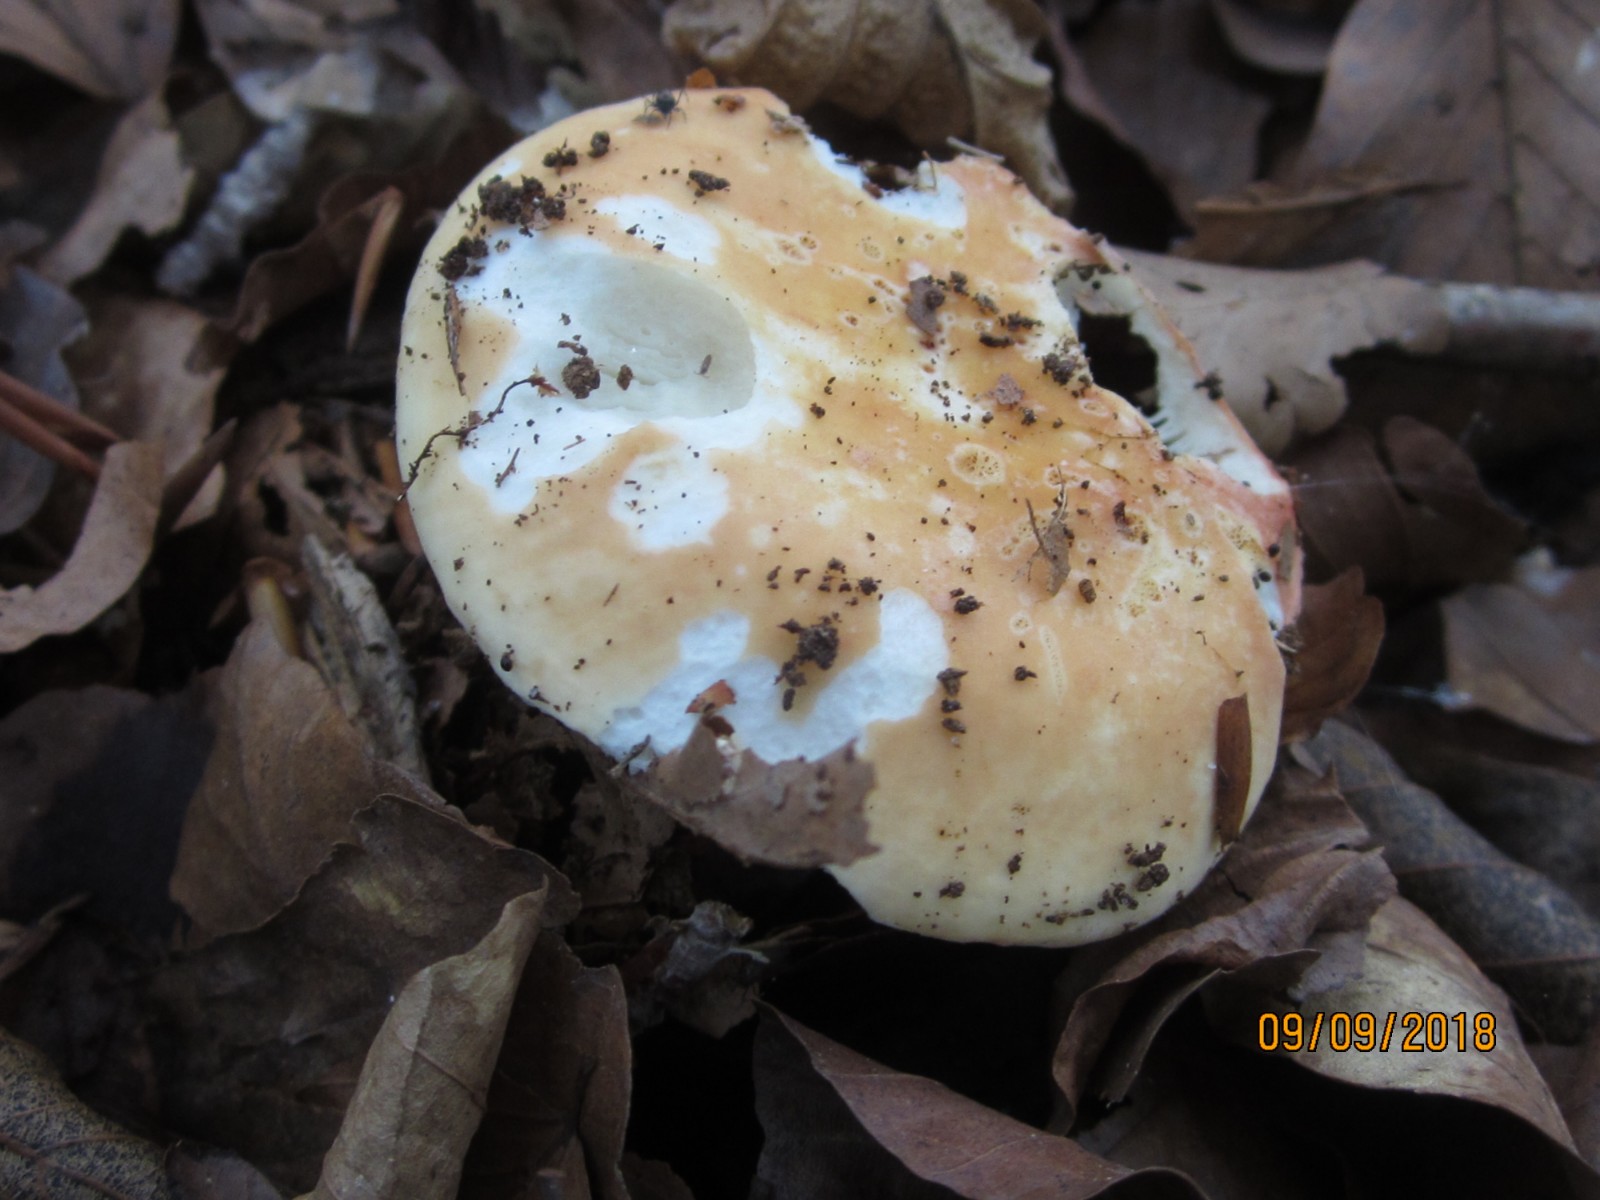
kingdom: Fungi
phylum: Basidiomycota
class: Agaricomycetes
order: Russulales
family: Russulaceae
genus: Russula
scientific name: Russula ochroleuca
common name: okkergul skørhat
